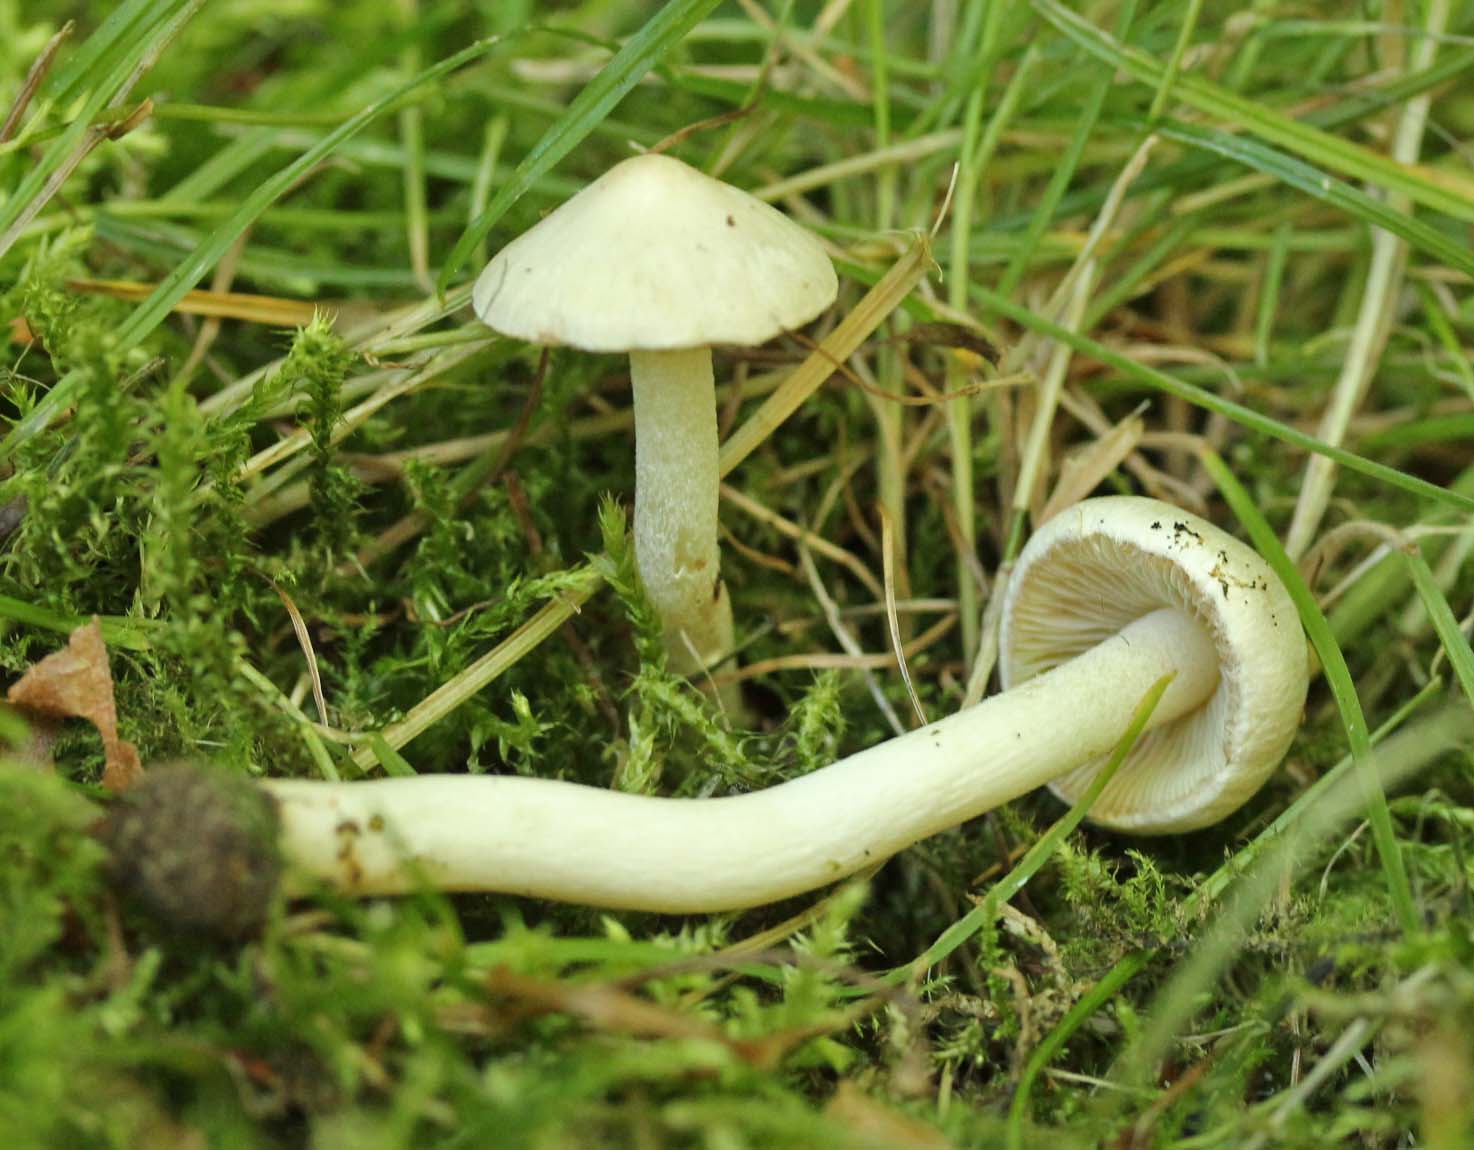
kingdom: Fungi
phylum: Basidiomycota
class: Agaricomycetes
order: Agaricales
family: Inocybaceae
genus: Inocybe
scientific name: Inocybe
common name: almindelig trævlhat
